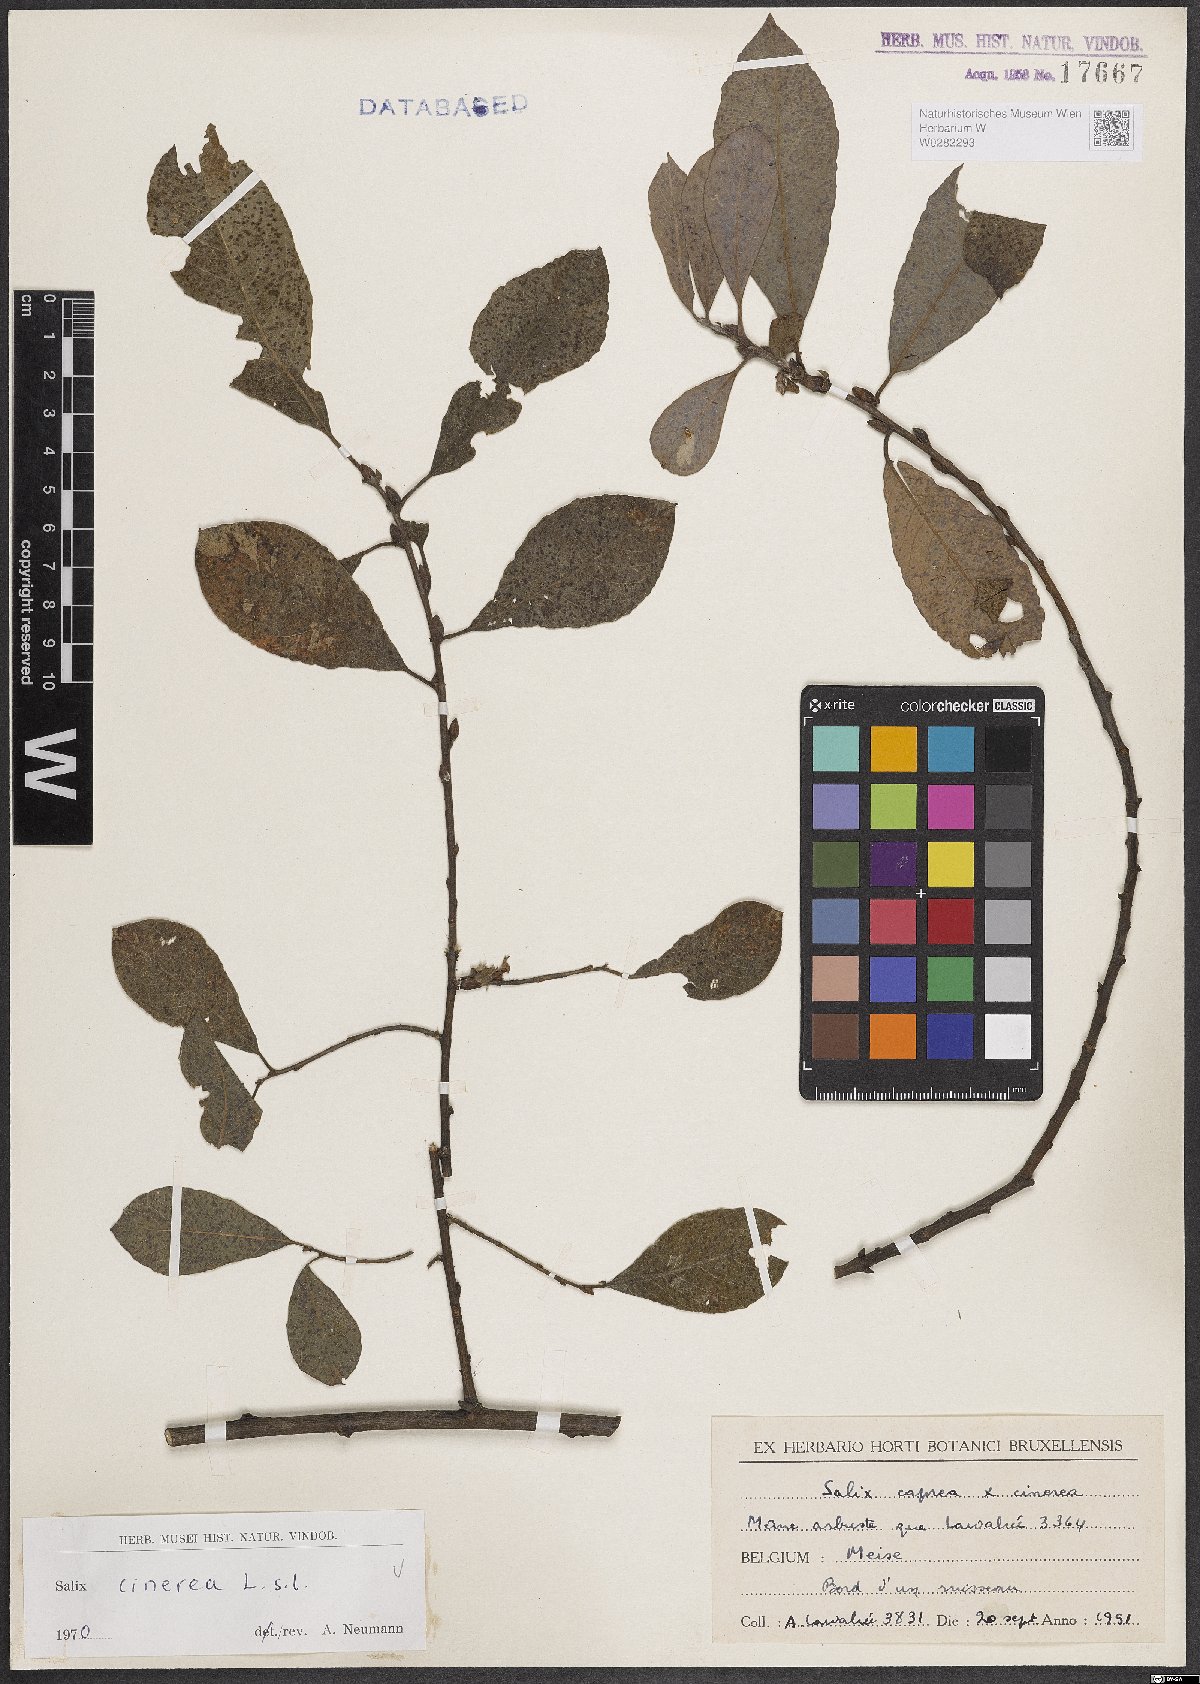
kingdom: Plantae
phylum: Tracheophyta
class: Magnoliopsida
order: Malpighiales
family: Salicaceae
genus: Salix
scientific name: Salix cinerea
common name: Common sallow
